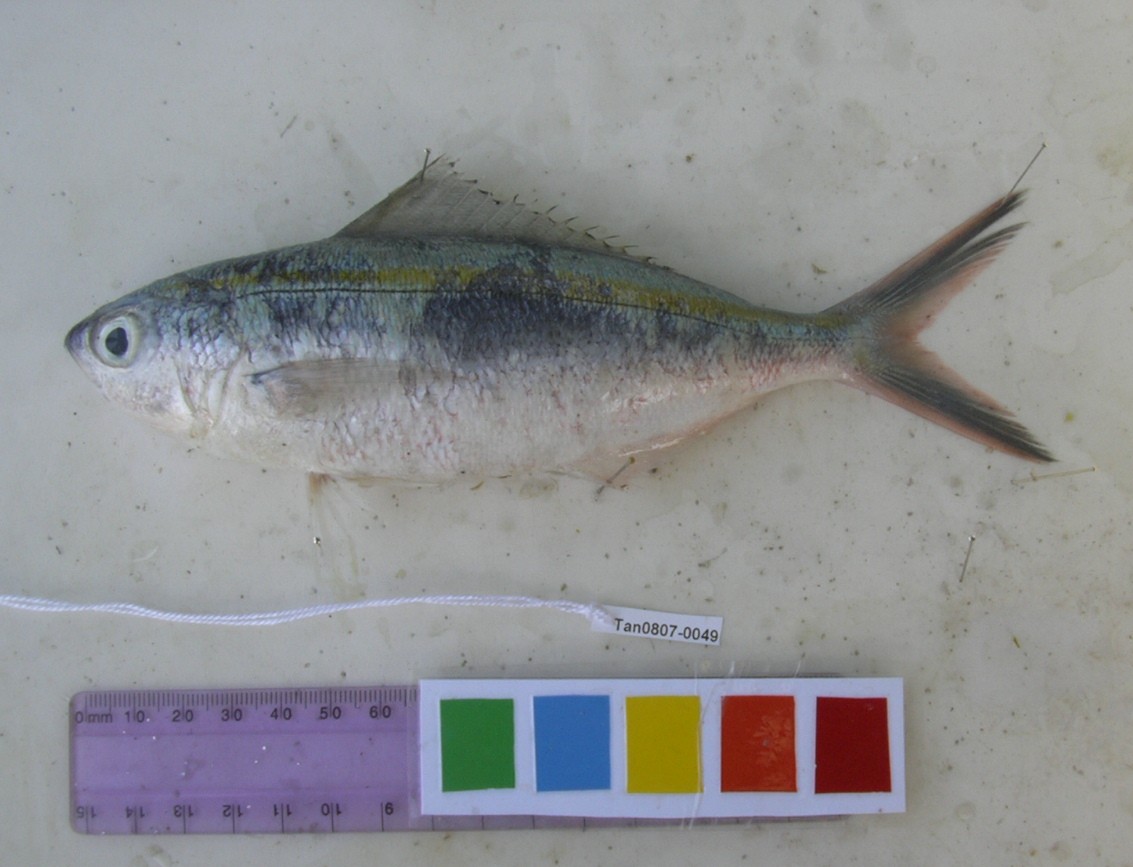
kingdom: Animalia
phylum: Chordata
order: Perciformes
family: Caesionidae
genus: Caesio
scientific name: Caesio caerulaurea
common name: Blue and gold fusilier
